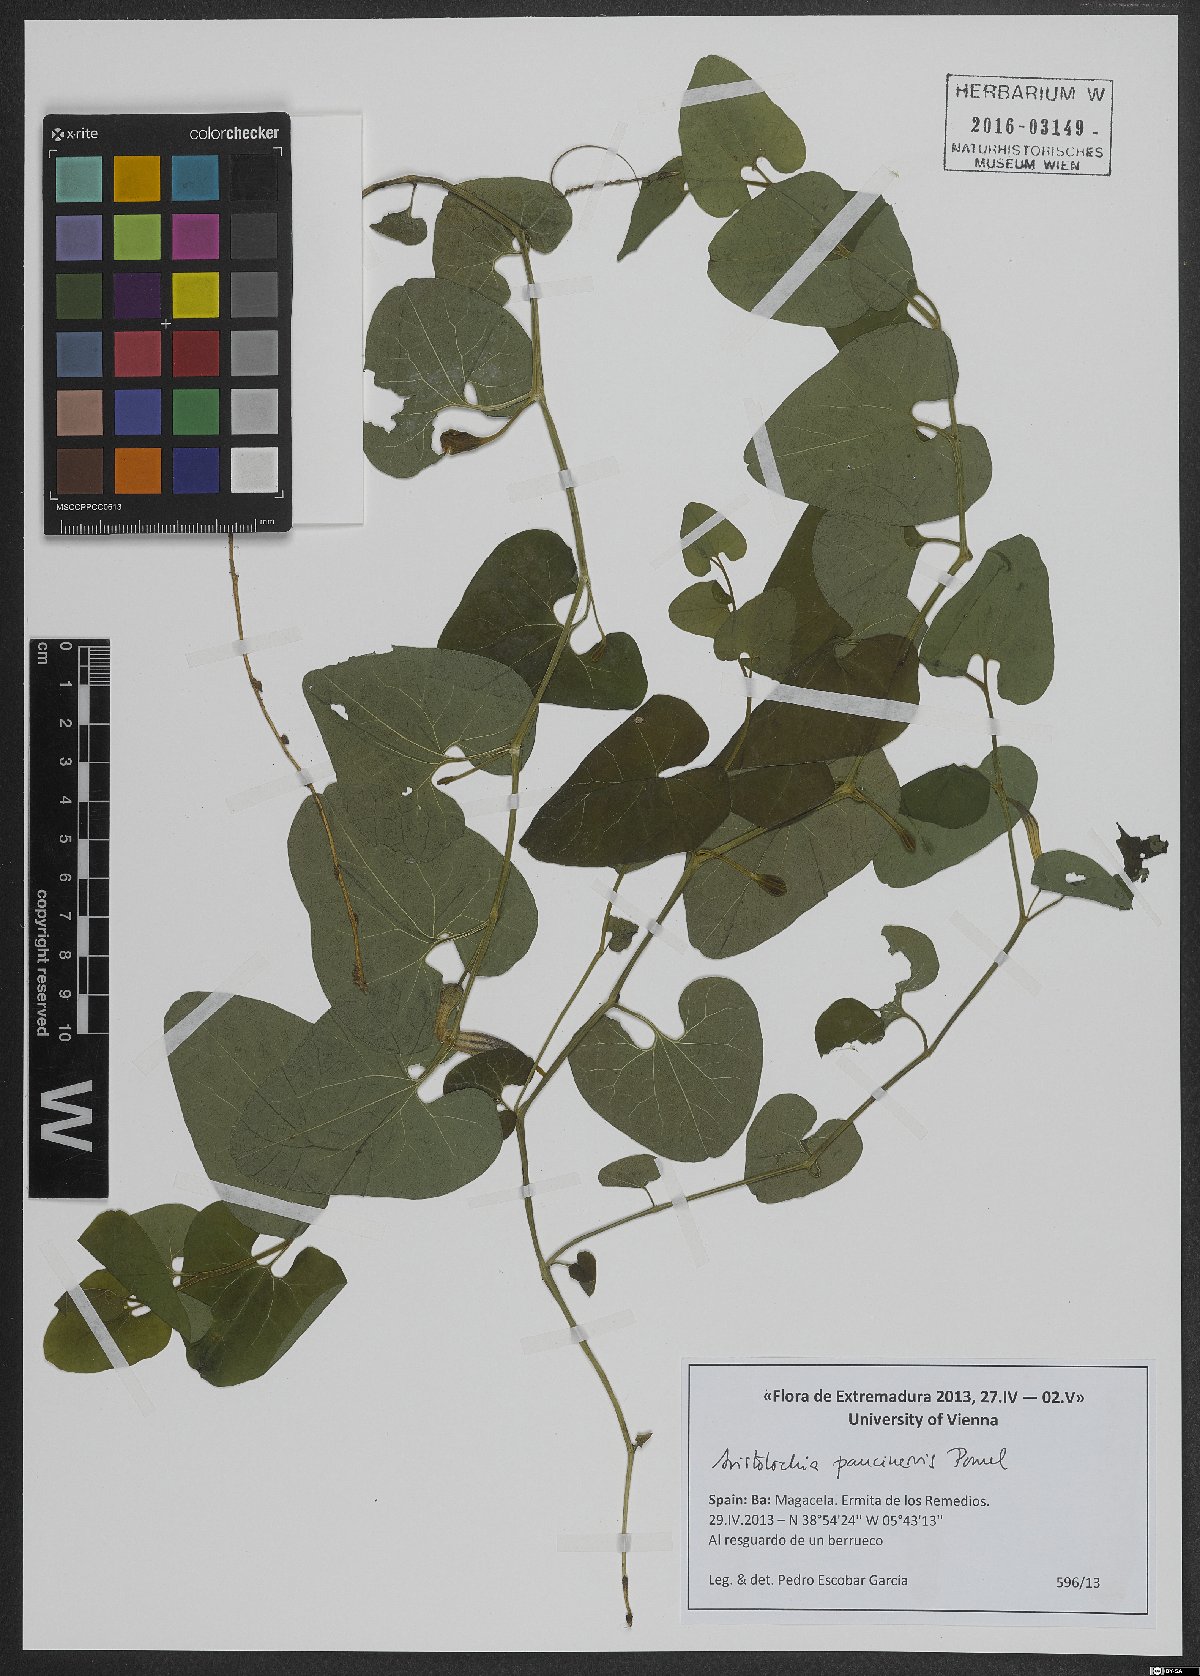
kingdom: Plantae
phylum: Tracheophyta
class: Magnoliopsida
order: Piperales
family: Aristolochiaceae
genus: Aristolochia
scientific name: Aristolochia paucinervis
